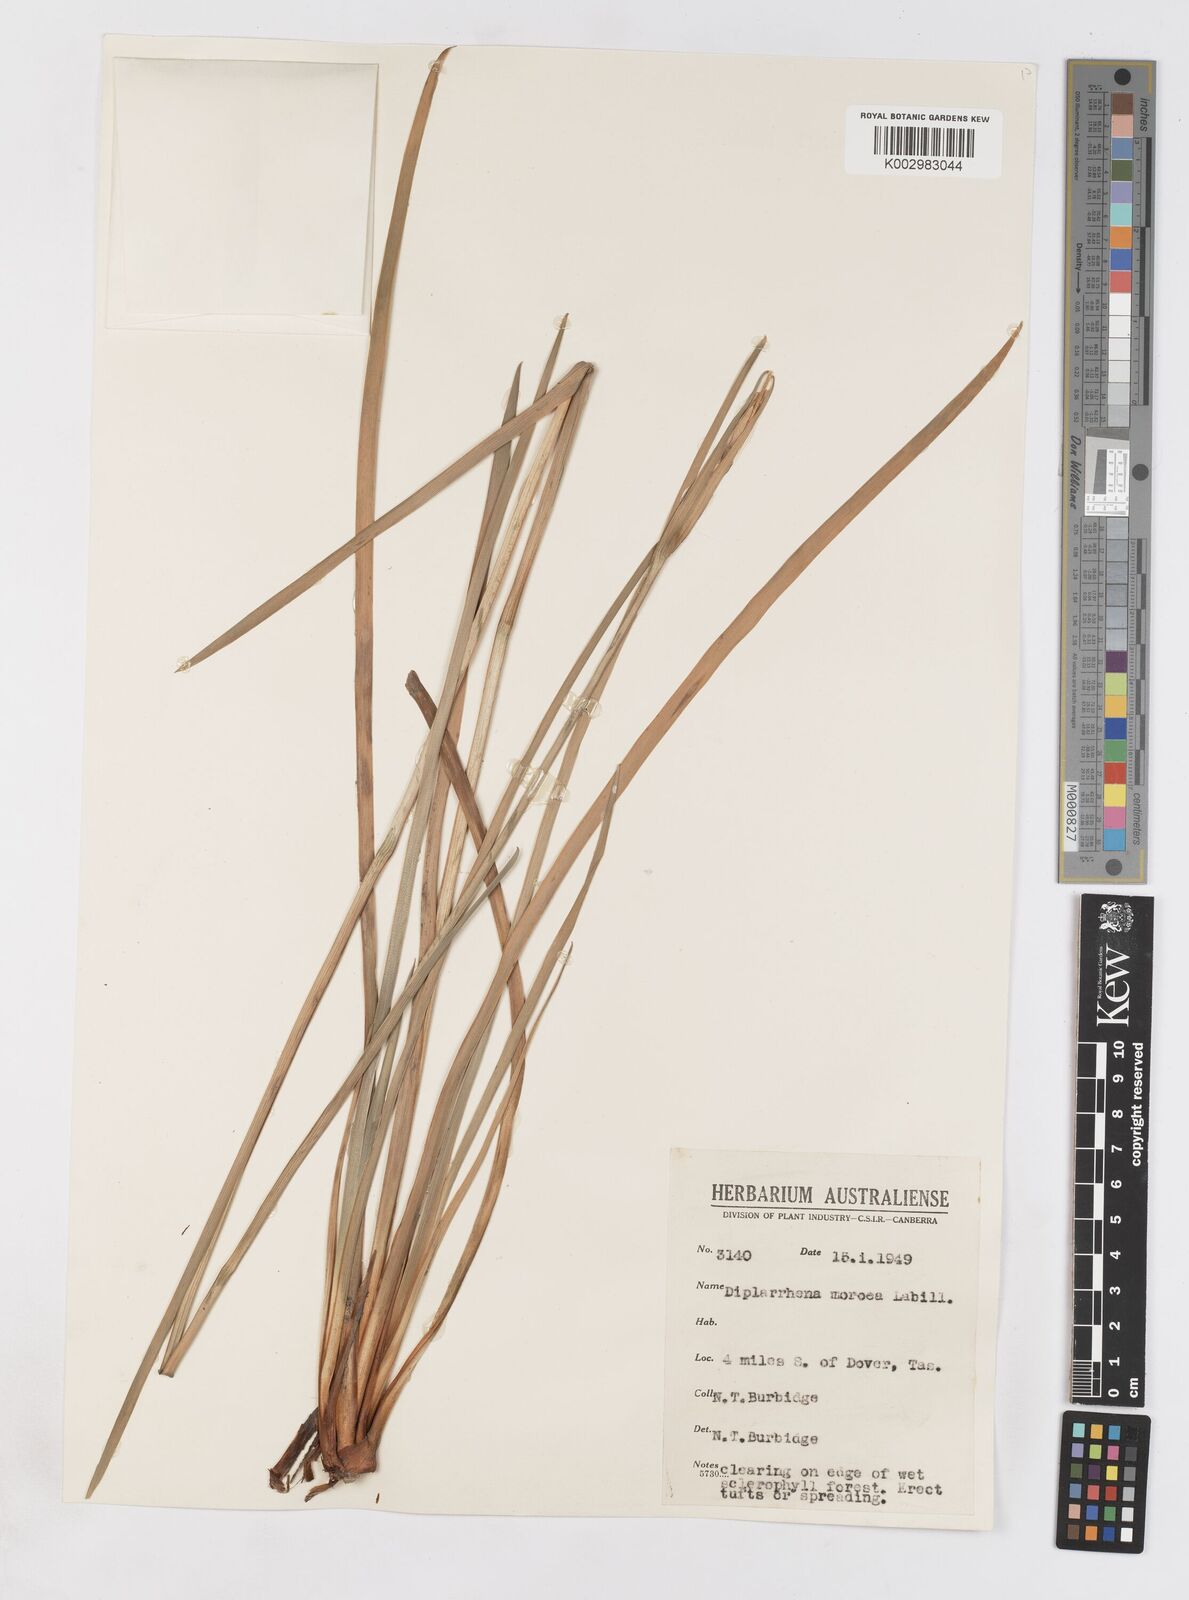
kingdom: Plantae
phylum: Tracheophyta
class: Liliopsida
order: Asparagales
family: Iridaceae
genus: Diplarrena
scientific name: Diplarrena moraea
